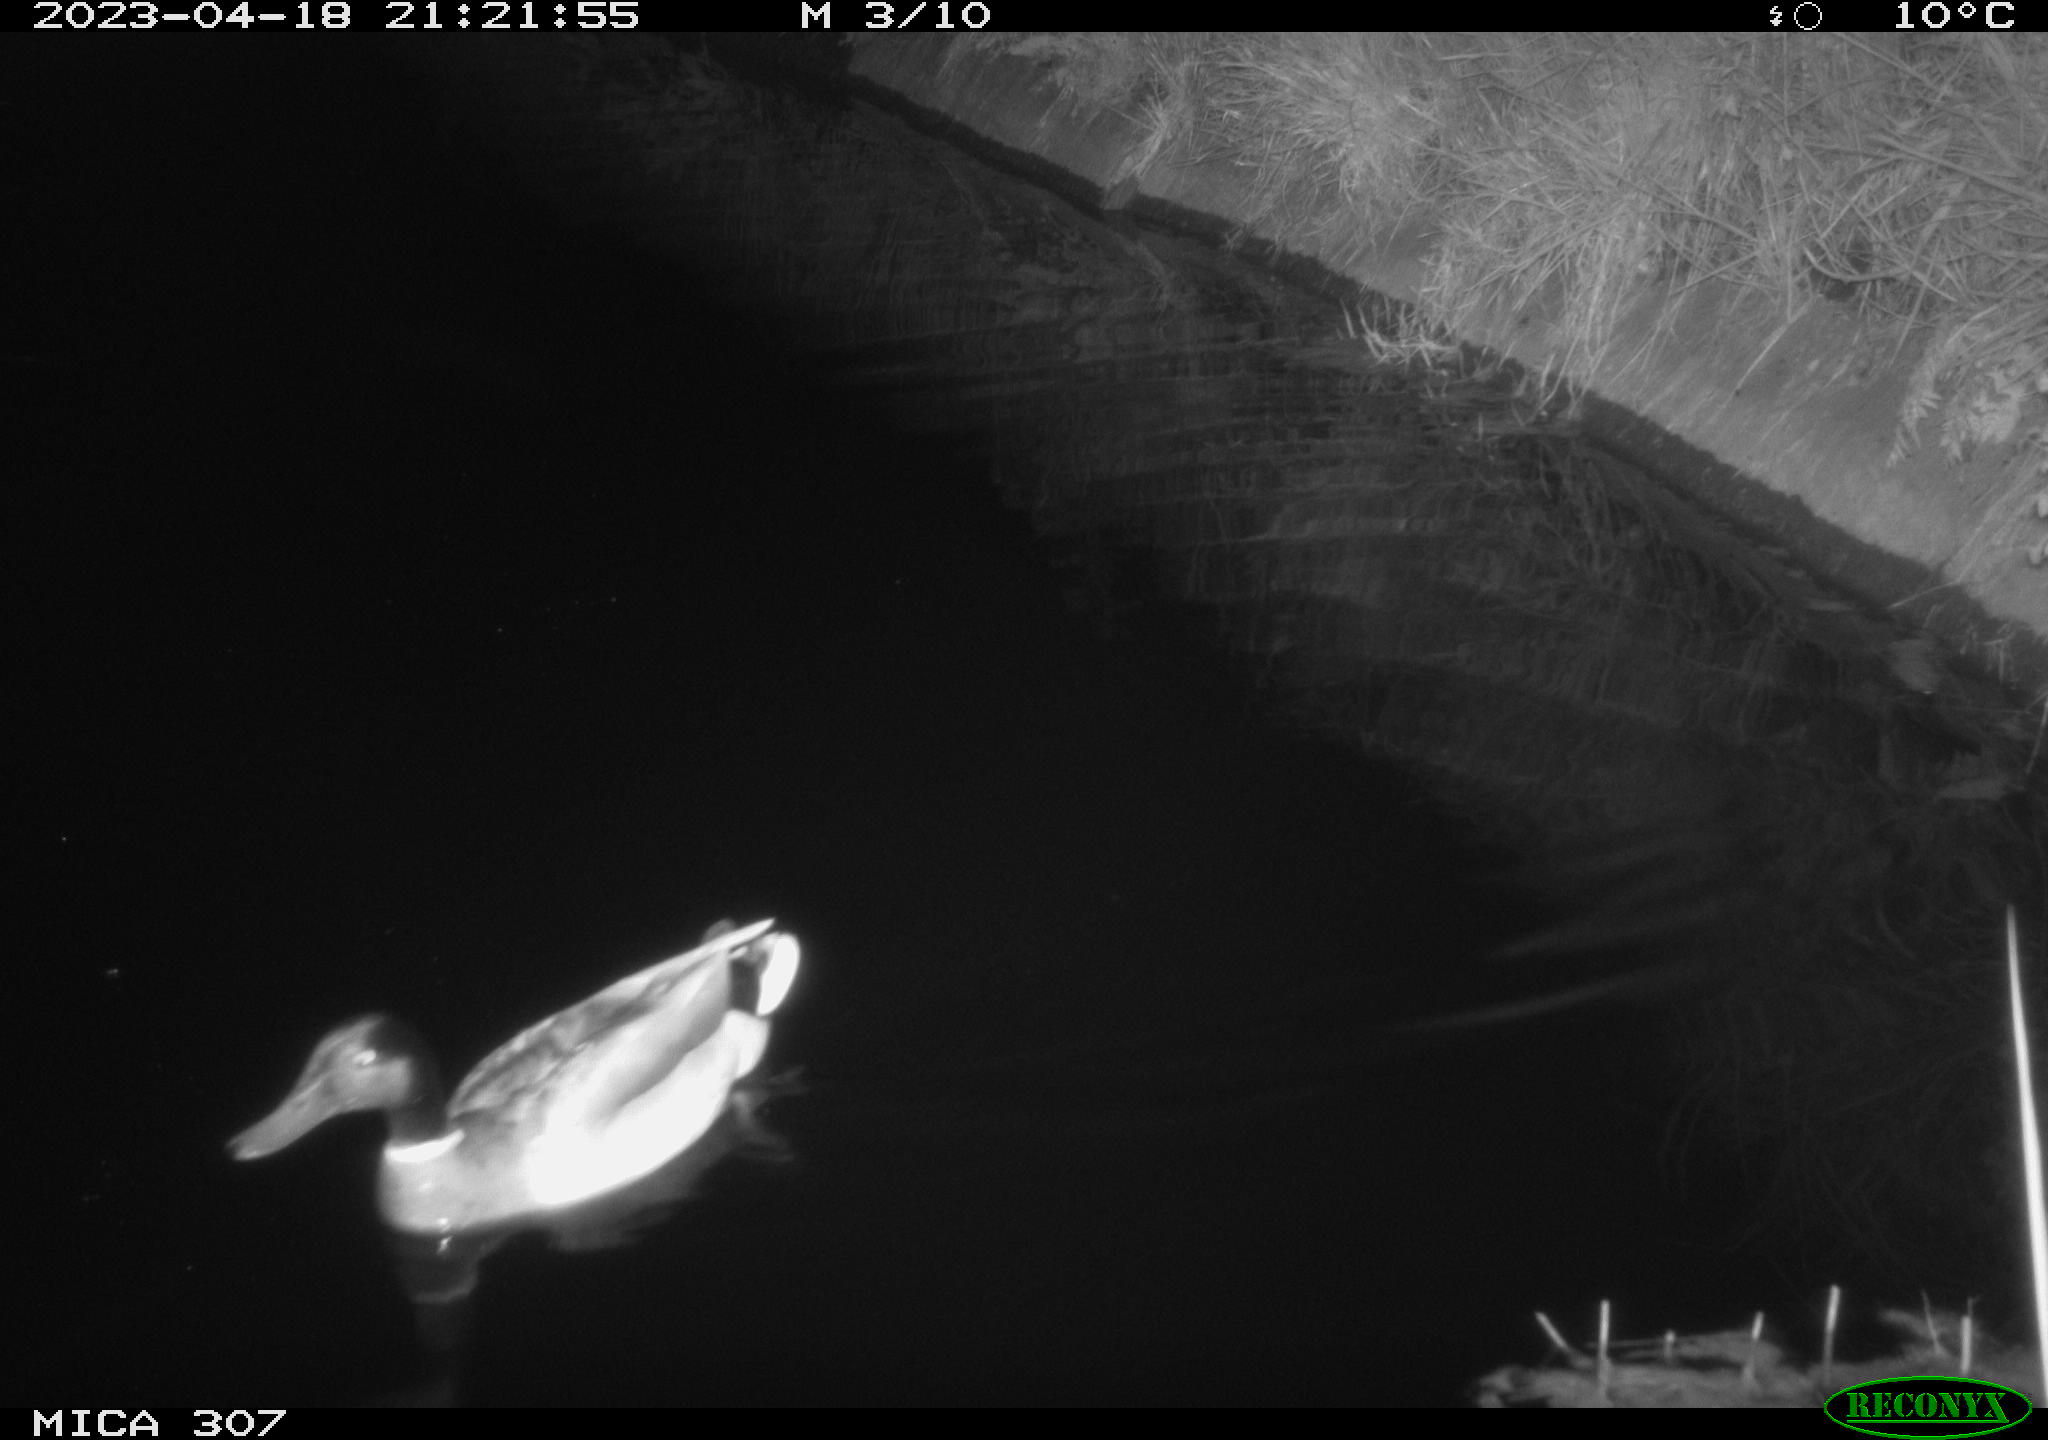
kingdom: Animalia
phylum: Chordata
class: Aves
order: Anseriformes
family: Anatidae
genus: Anas
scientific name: Anas
